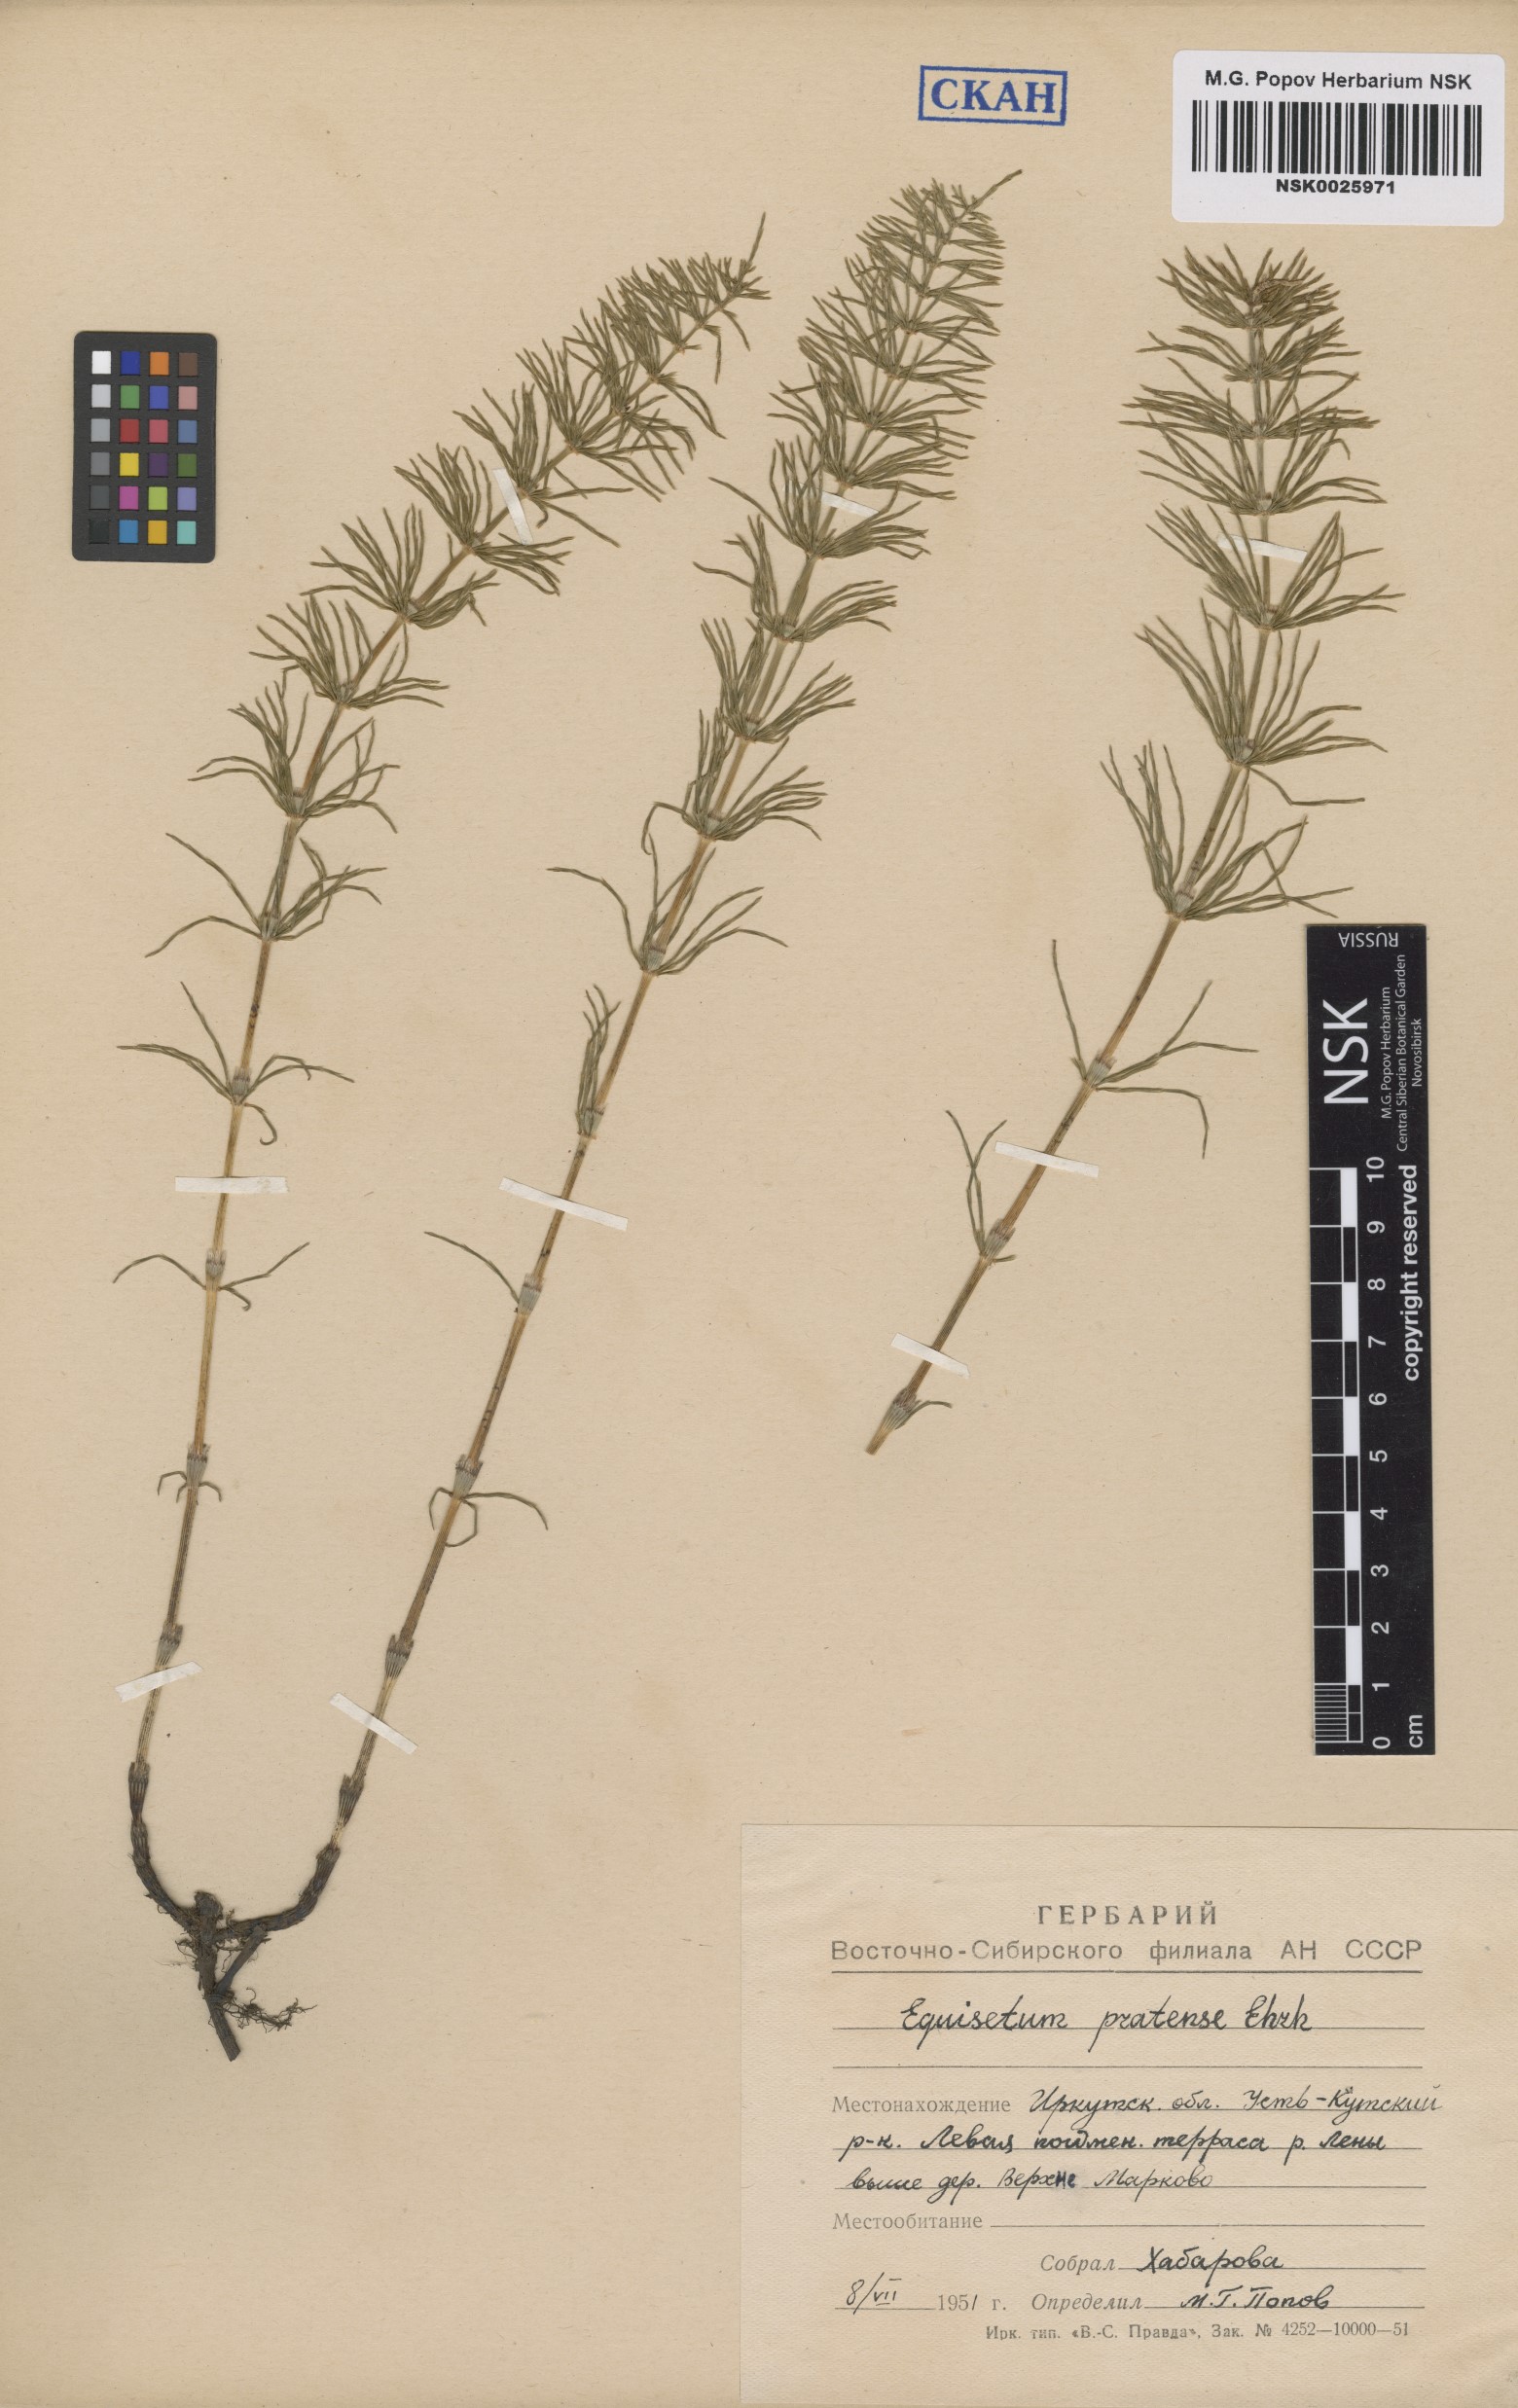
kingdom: Plantae
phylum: Tracheophyta
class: Polypodiopsida
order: Equisetales
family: Equisetaceae
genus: Equisetum
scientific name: Equisetum pratense
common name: Meadow horsetail
